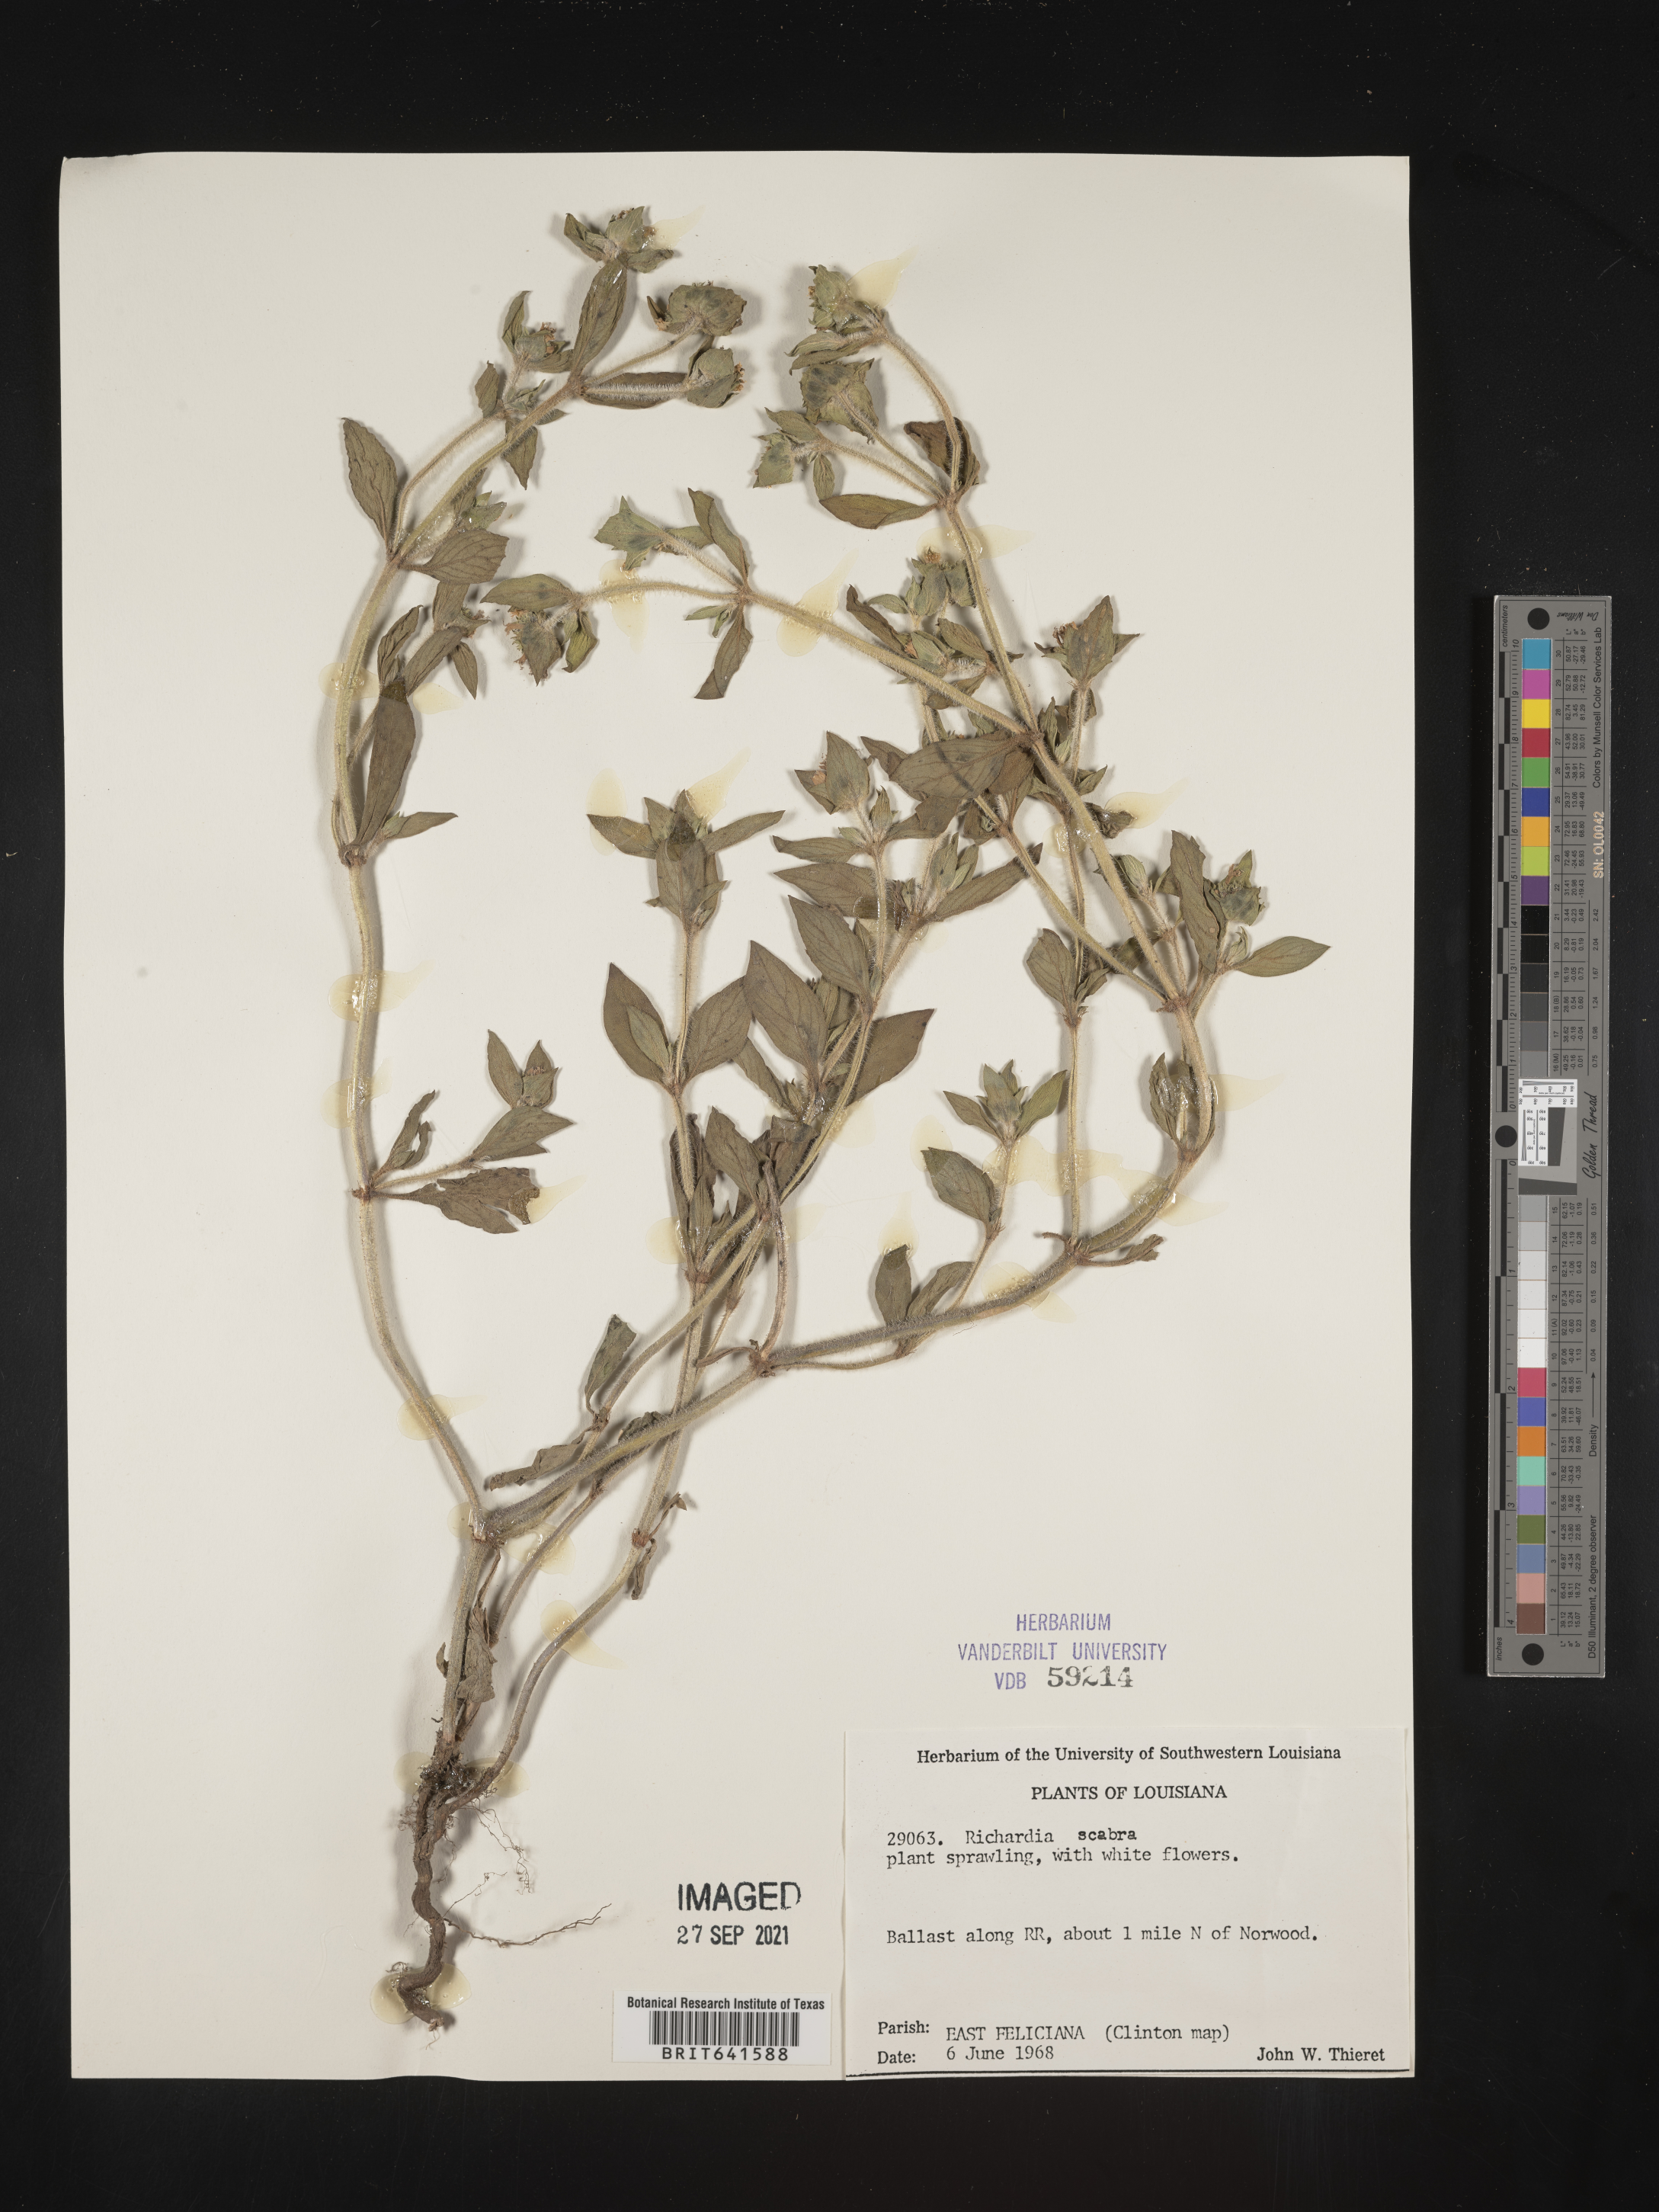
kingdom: Plantae
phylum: Tracheophyta
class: Magnoliopsida
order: Gentianales
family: Rubiaceae
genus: Richardia
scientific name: Richardia scabra
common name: Rough mexican clover
